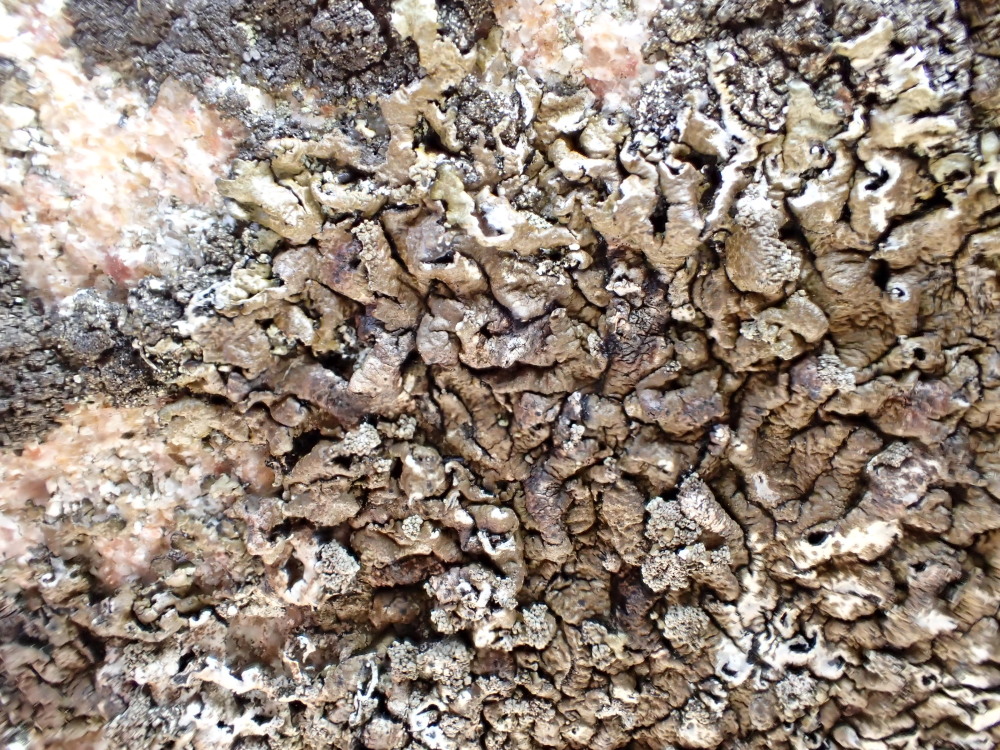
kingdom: Fungi
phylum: Ascomycota
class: Lecanoromycetes
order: Lecanorales
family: Parmeliaceae
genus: Xanthoparmelia
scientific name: Xanthoparmelia loxodes
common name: knudret skållav
